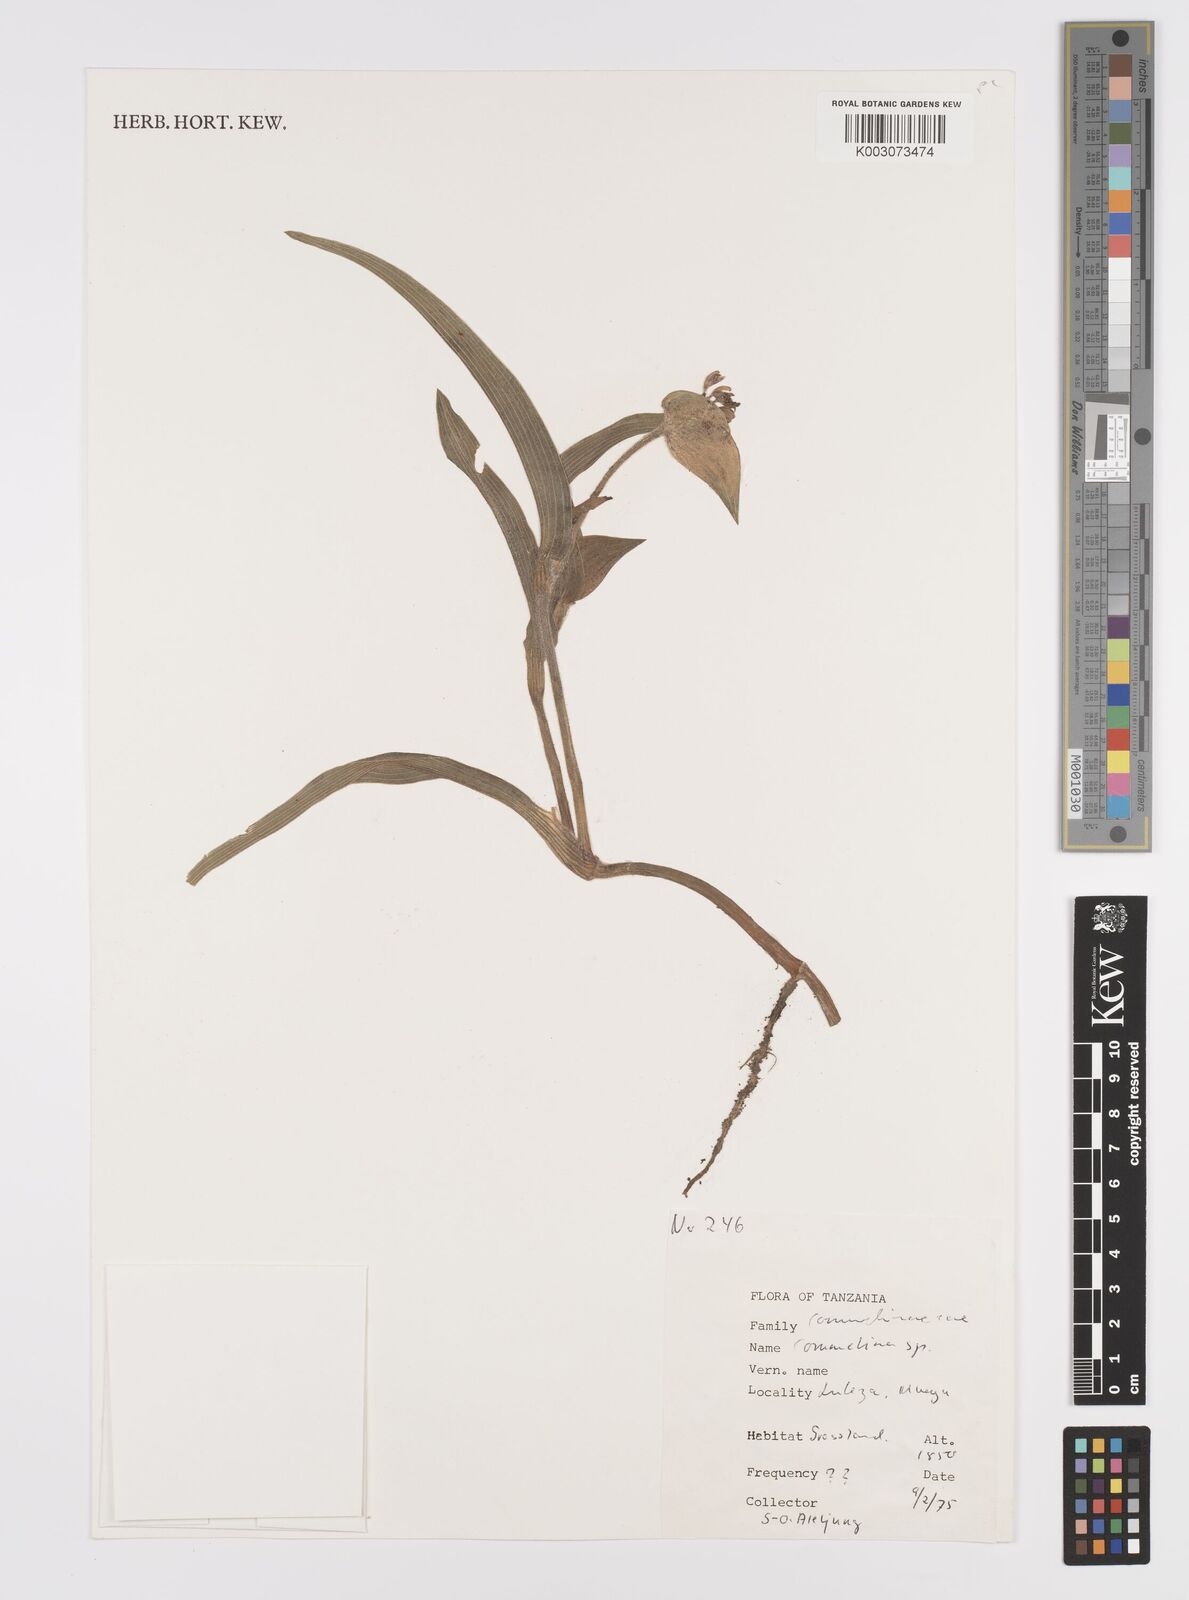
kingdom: Plantae
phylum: Tracheophyta
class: Liliopsida
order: Commelinales
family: Commelinaceae
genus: Commelina
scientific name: Commelina kituloensis
